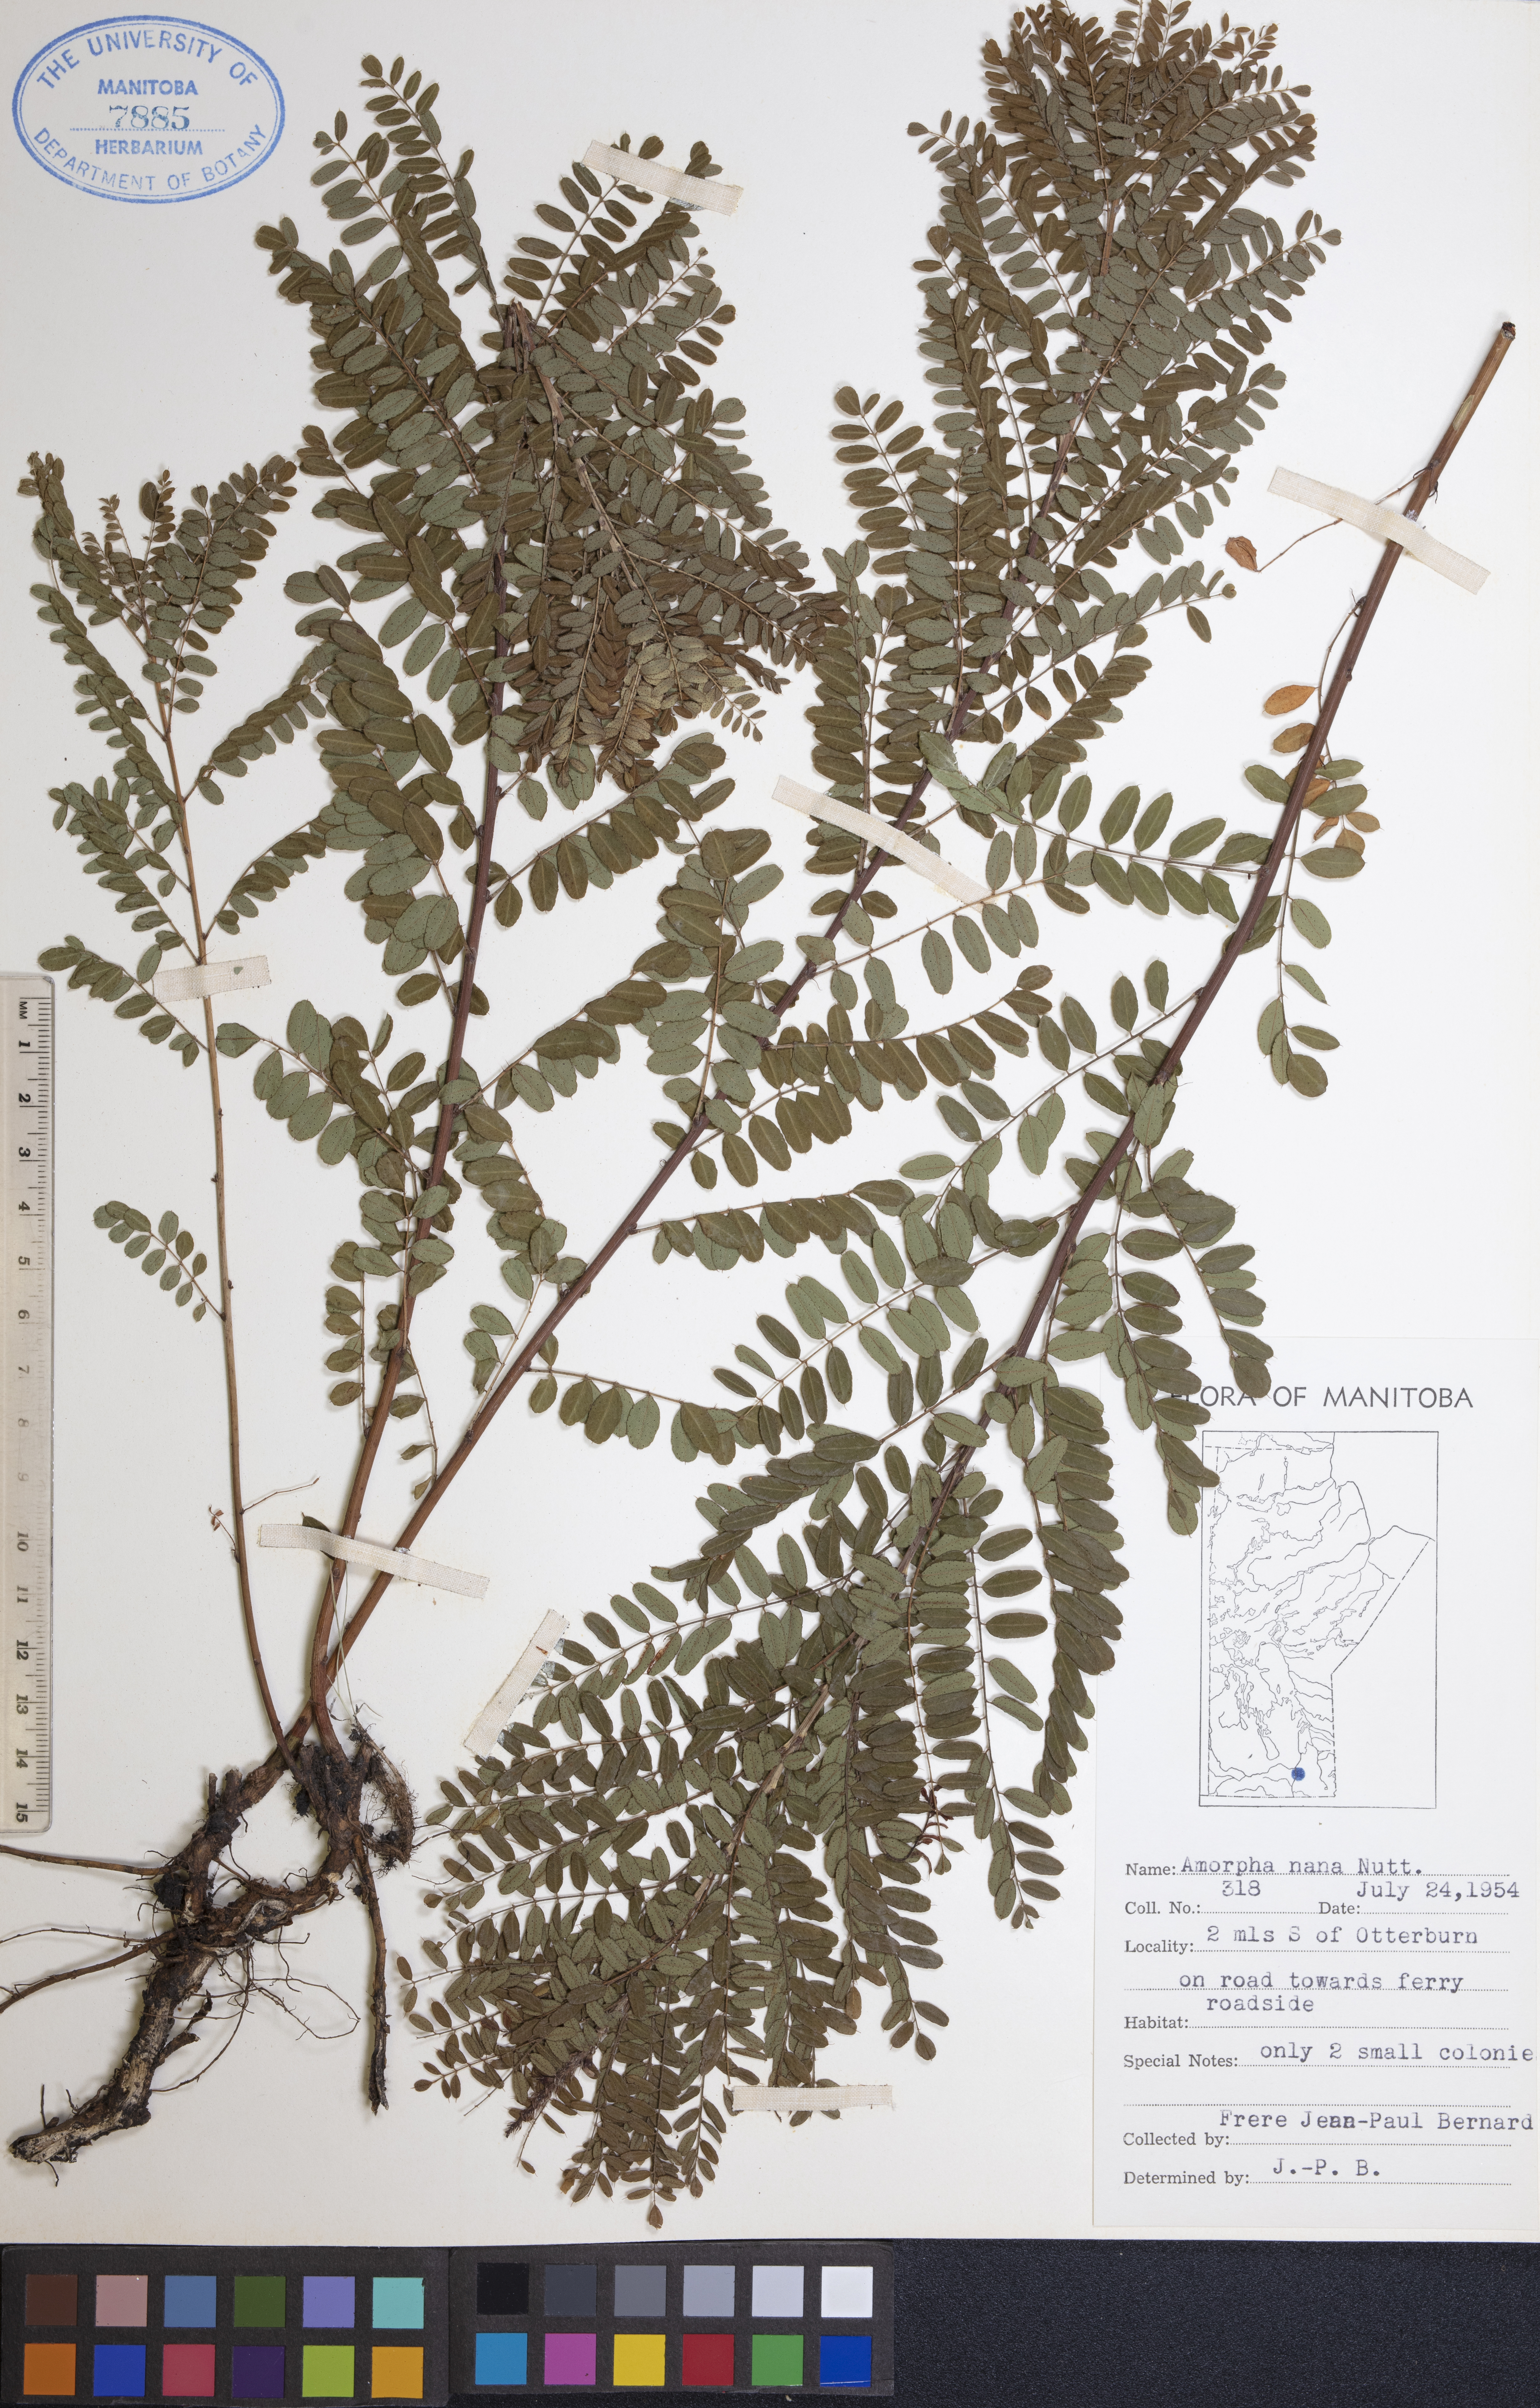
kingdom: Plantae
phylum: Tracheophyta
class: Magnoliopsida
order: Fabales
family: Fabaceae
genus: Amorpha
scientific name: Amorpha nana
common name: Fragrant false indigo
